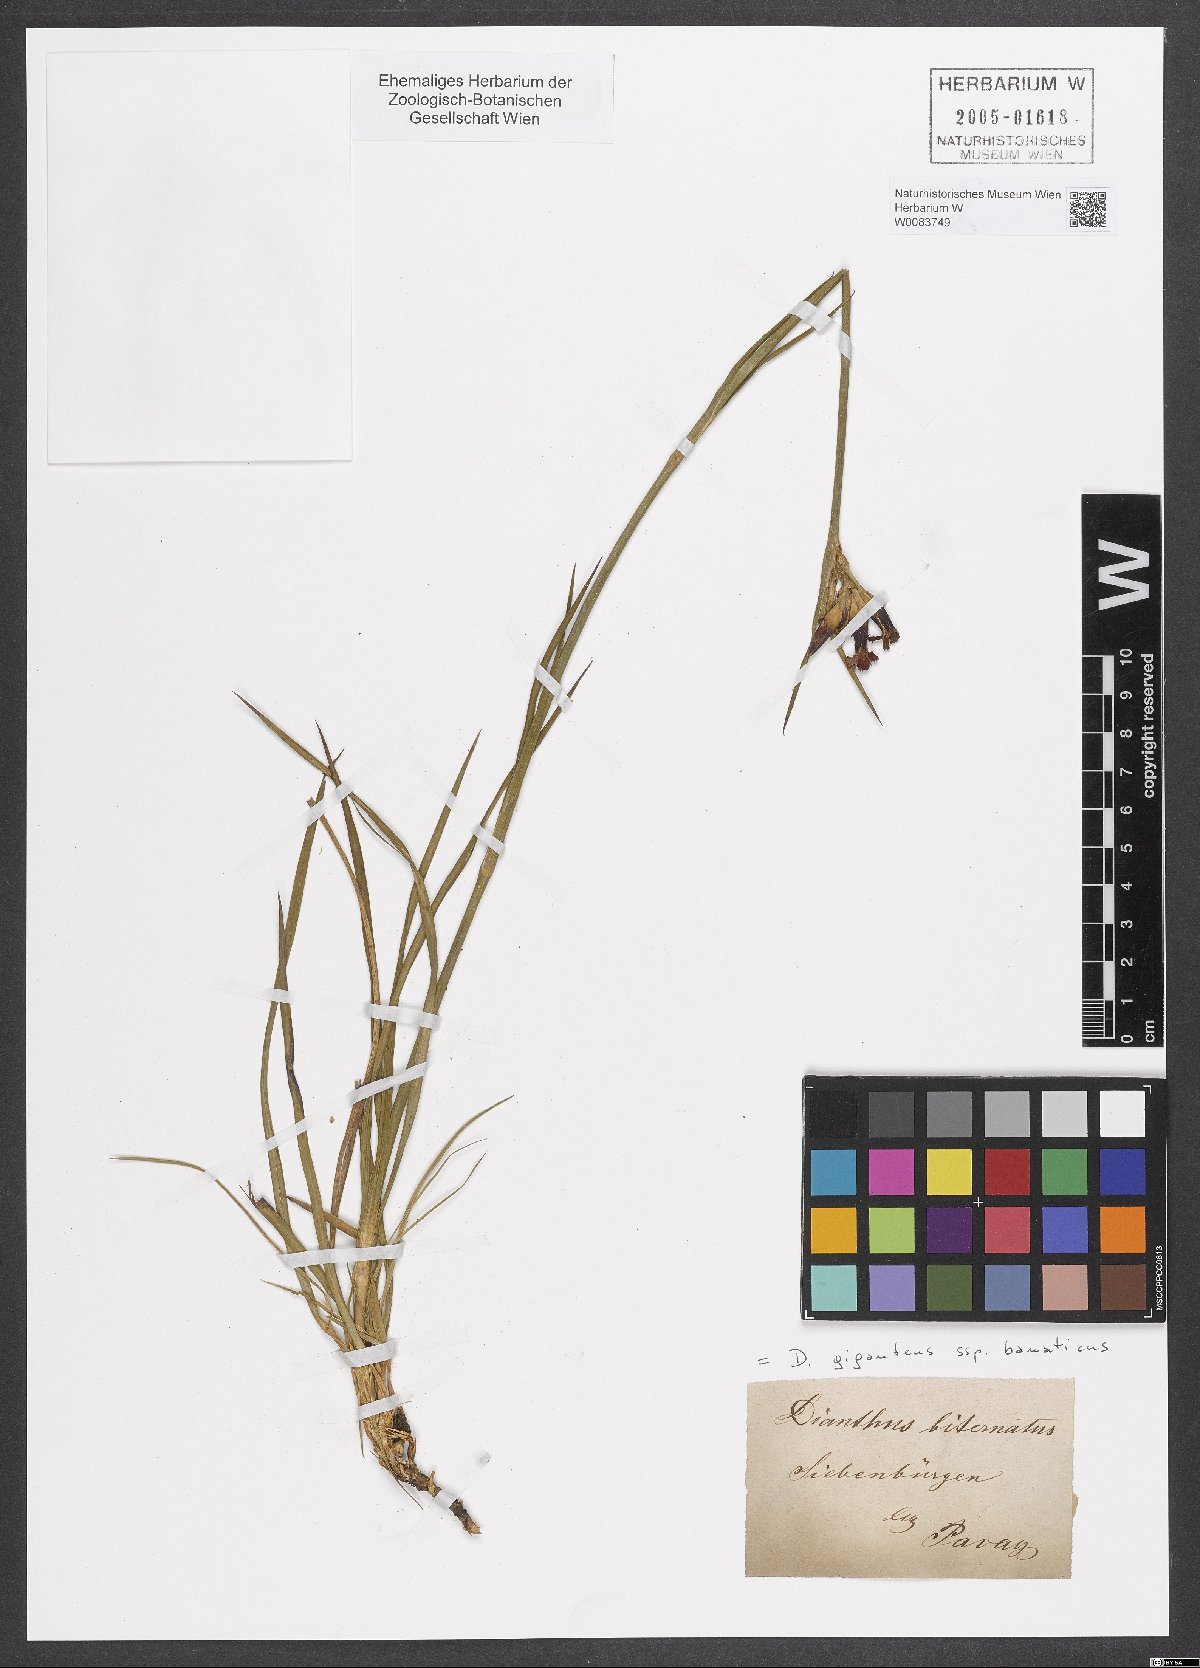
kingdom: Plantae
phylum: Tracheophyta
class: Magnoliopsida
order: Caryophyllales
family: Caryophyllaceae
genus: Dianthus
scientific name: Dianthus giganteus
